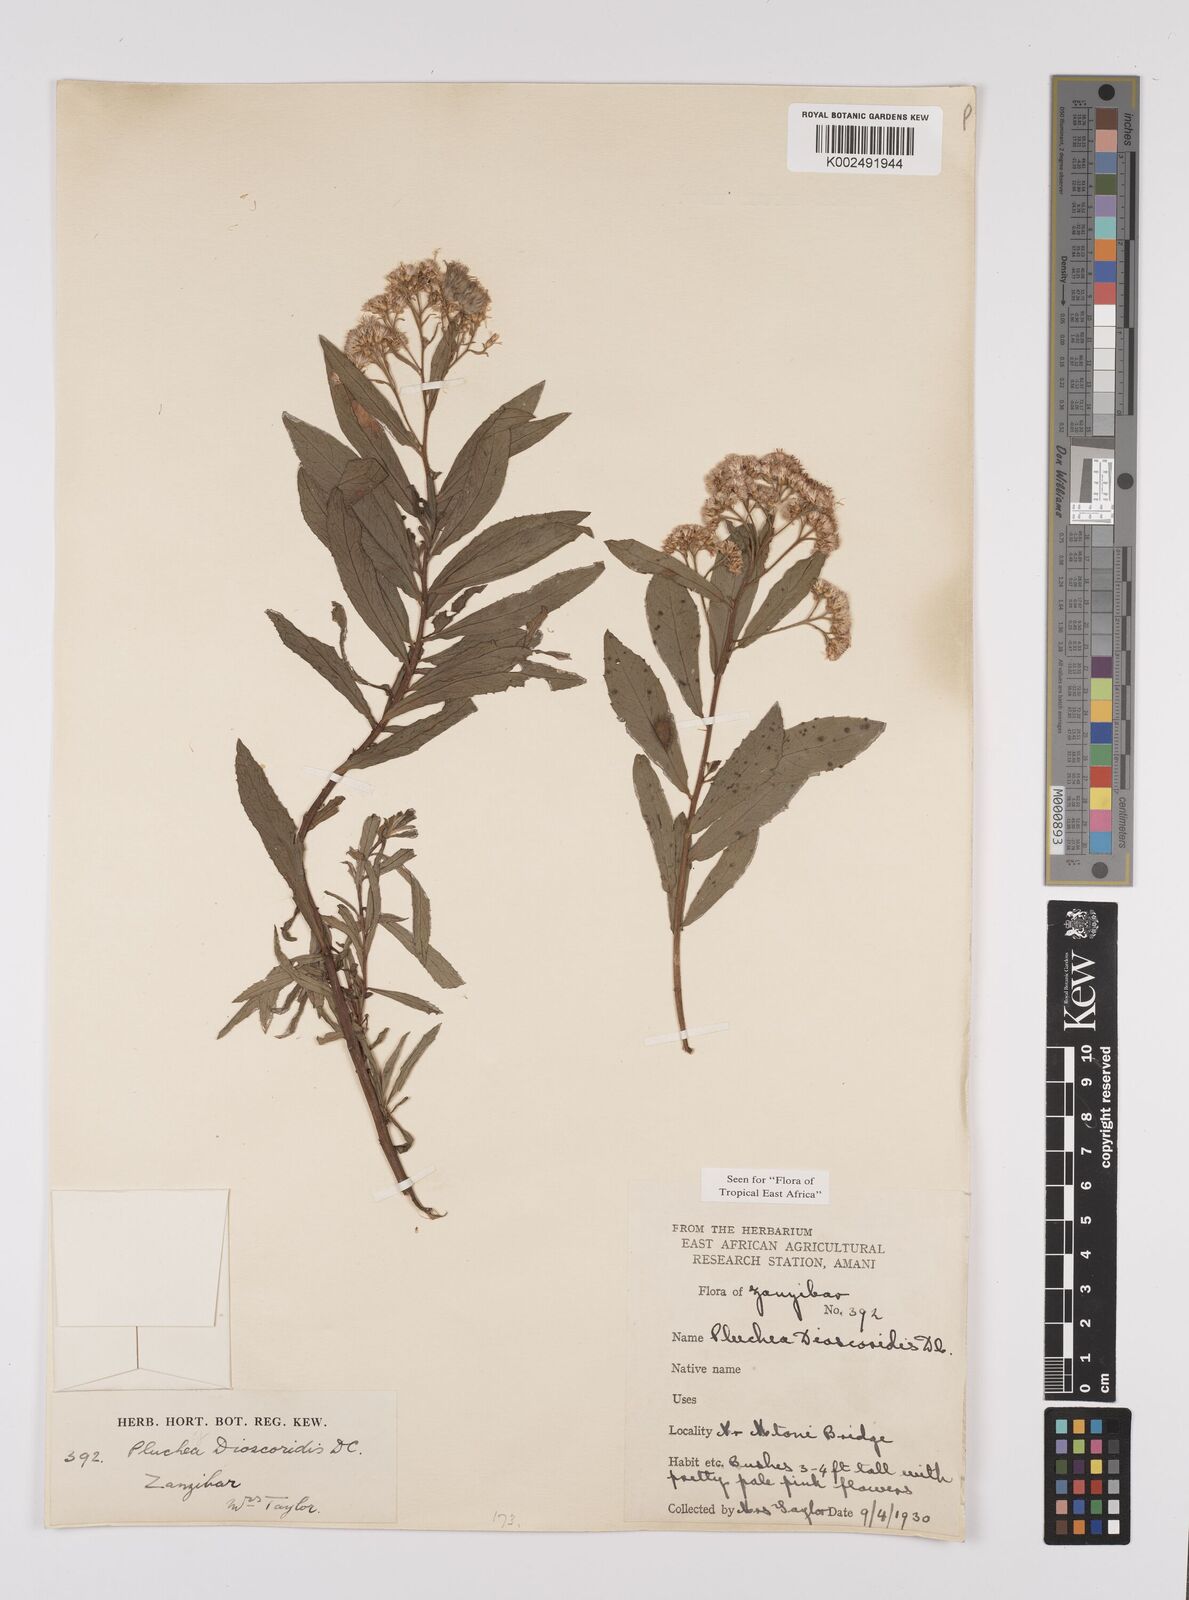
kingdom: Plantae
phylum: Tracheophyta
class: Magnoliopsida
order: Asterales
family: Asteraceae
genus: Pluchea
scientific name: Pluchea dioscoridis
